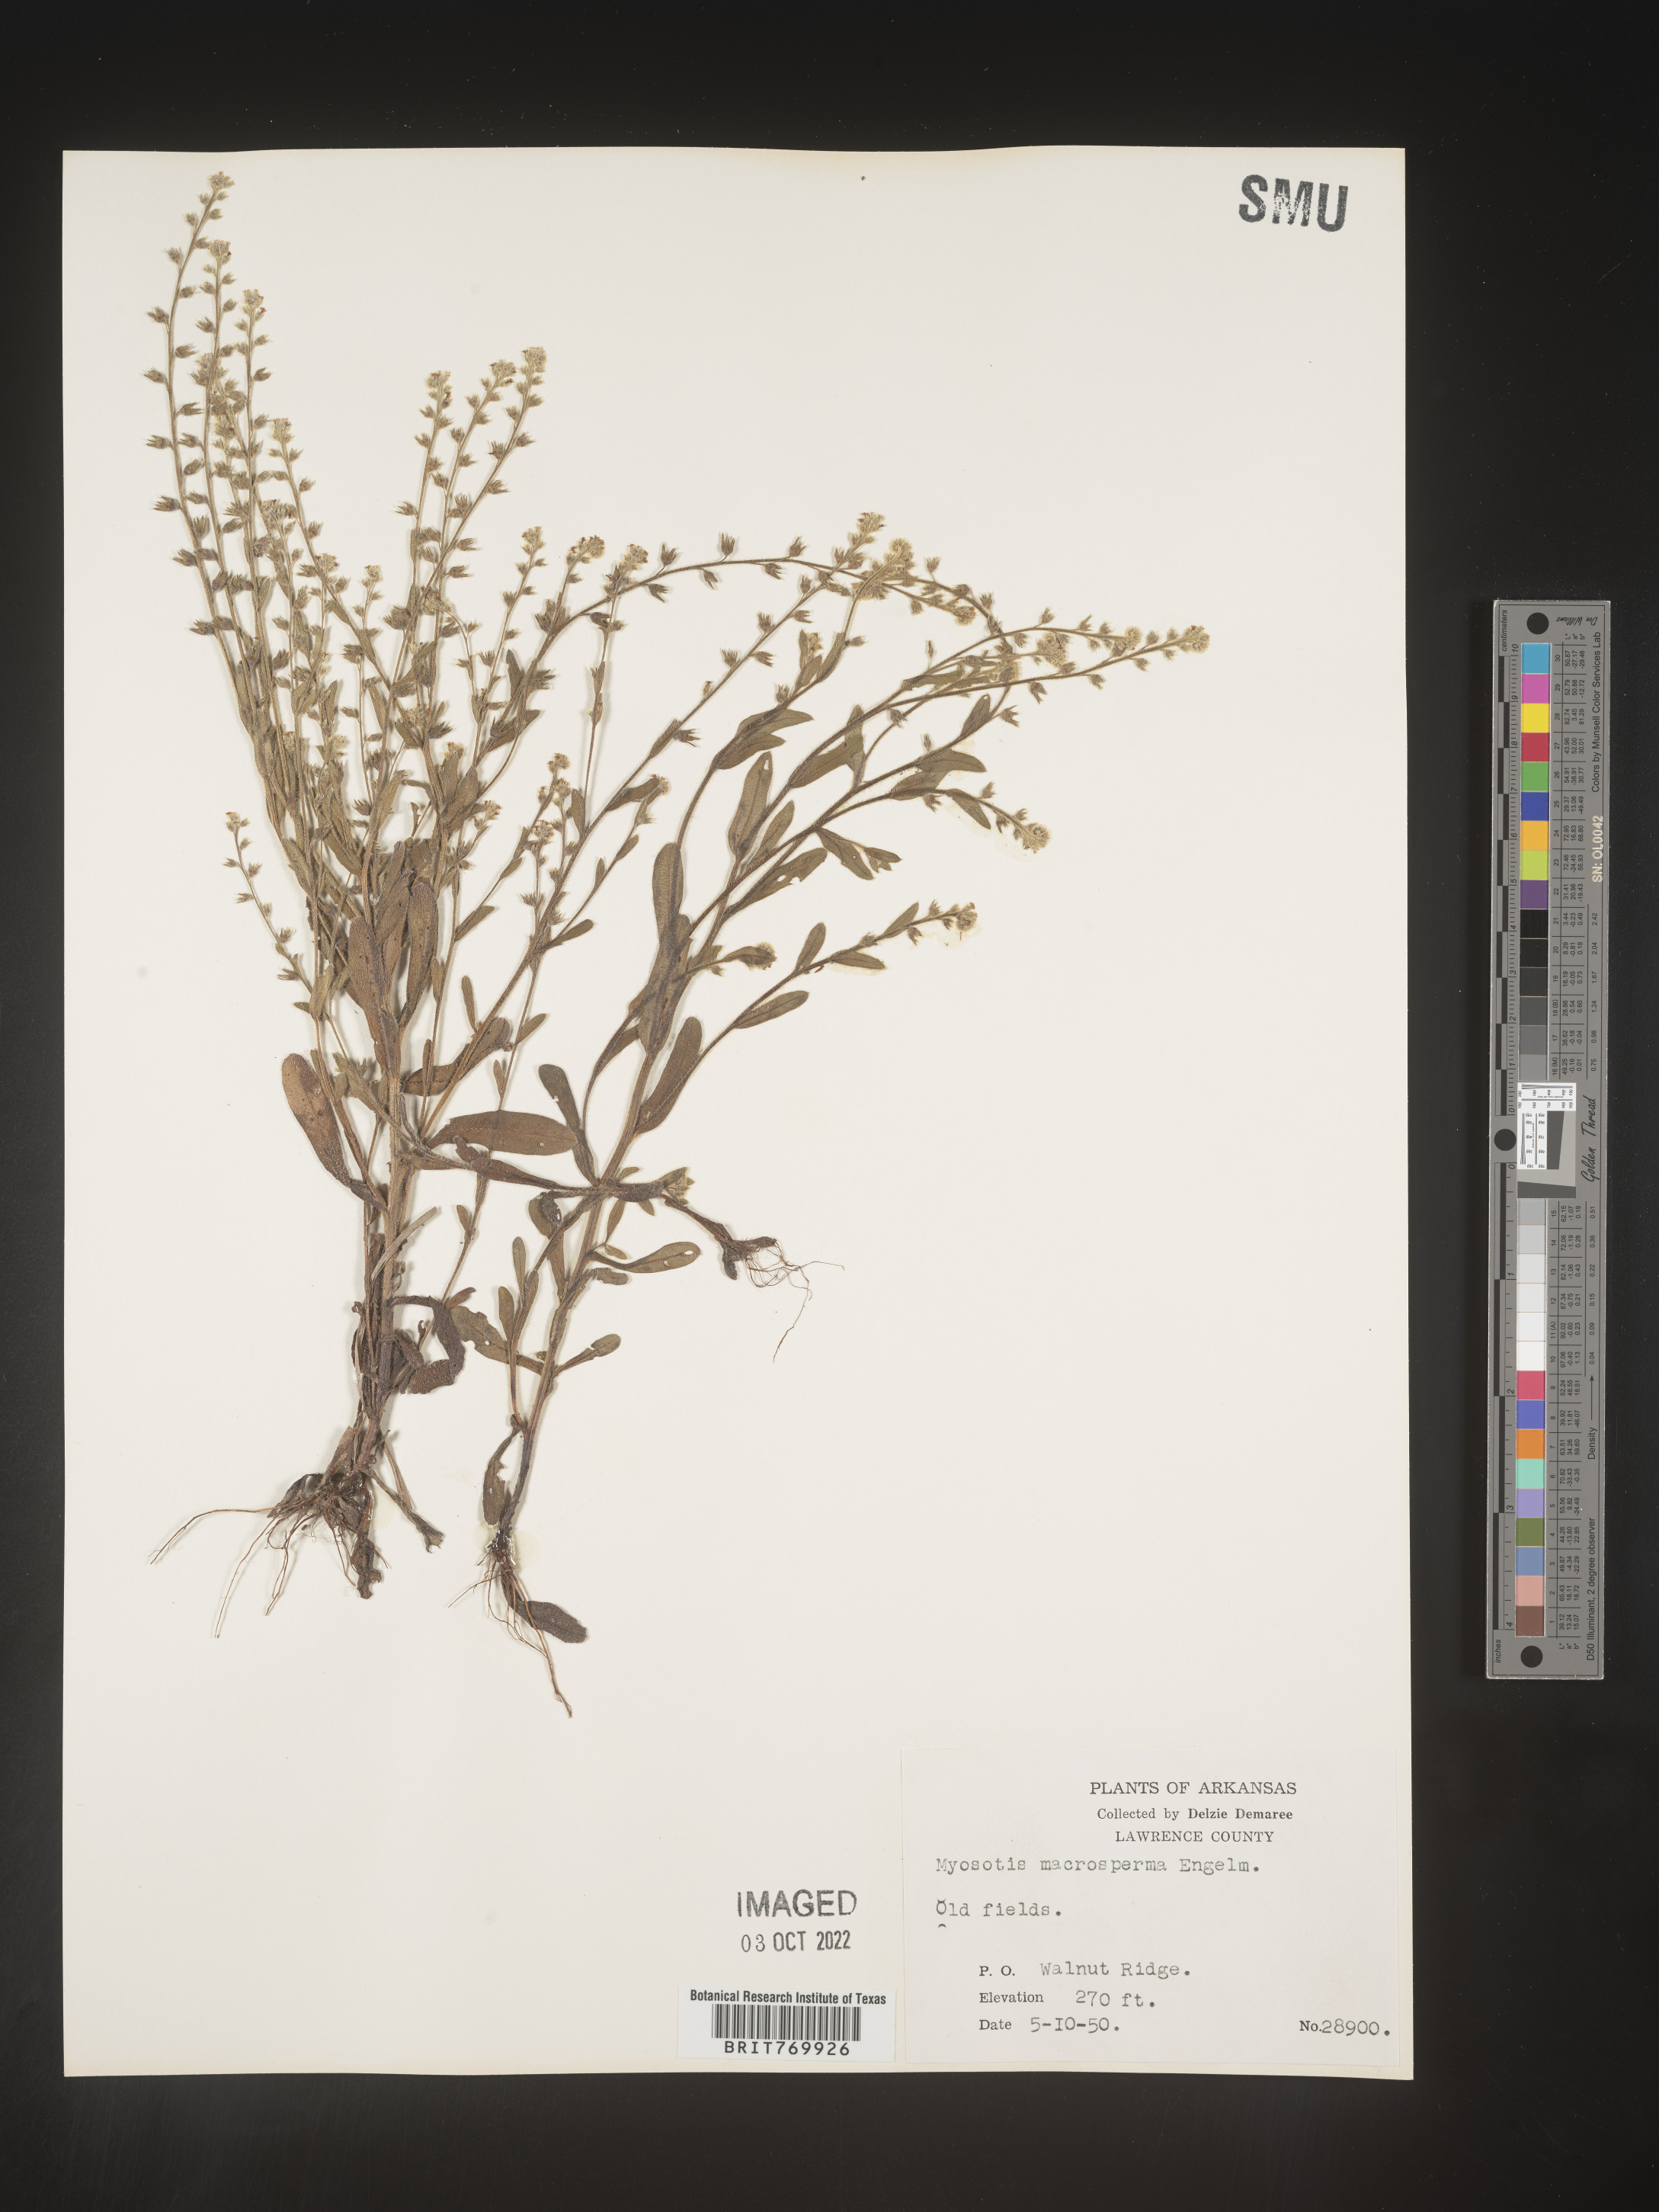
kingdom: Plantae
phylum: Tracheophyta
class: Magnoliopsida
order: Boraginales
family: Boraginaceae
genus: Myosotis
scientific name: Myosotis verna
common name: Early forget-me-not
